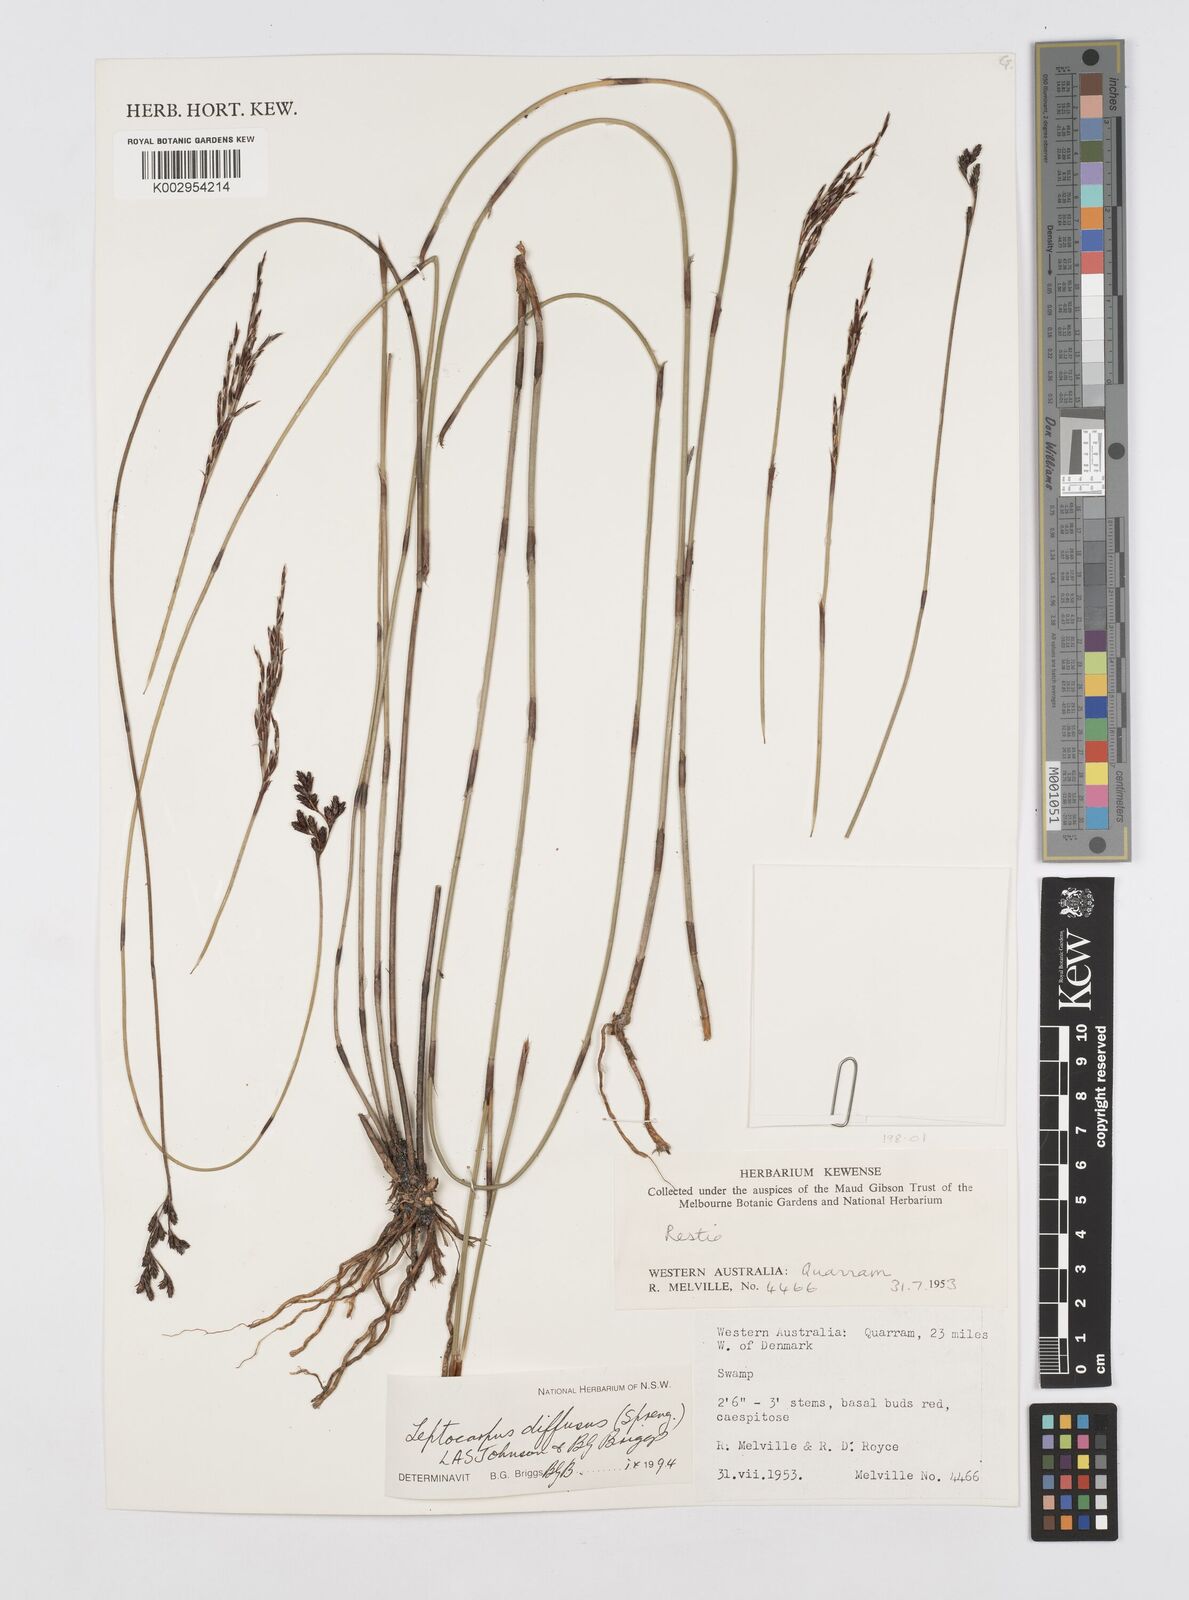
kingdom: Plantae
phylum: Tracheophyta
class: Liliopsida
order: Poales
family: Restionaceae
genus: Leptocarpus
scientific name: Leptocarpus laxus
